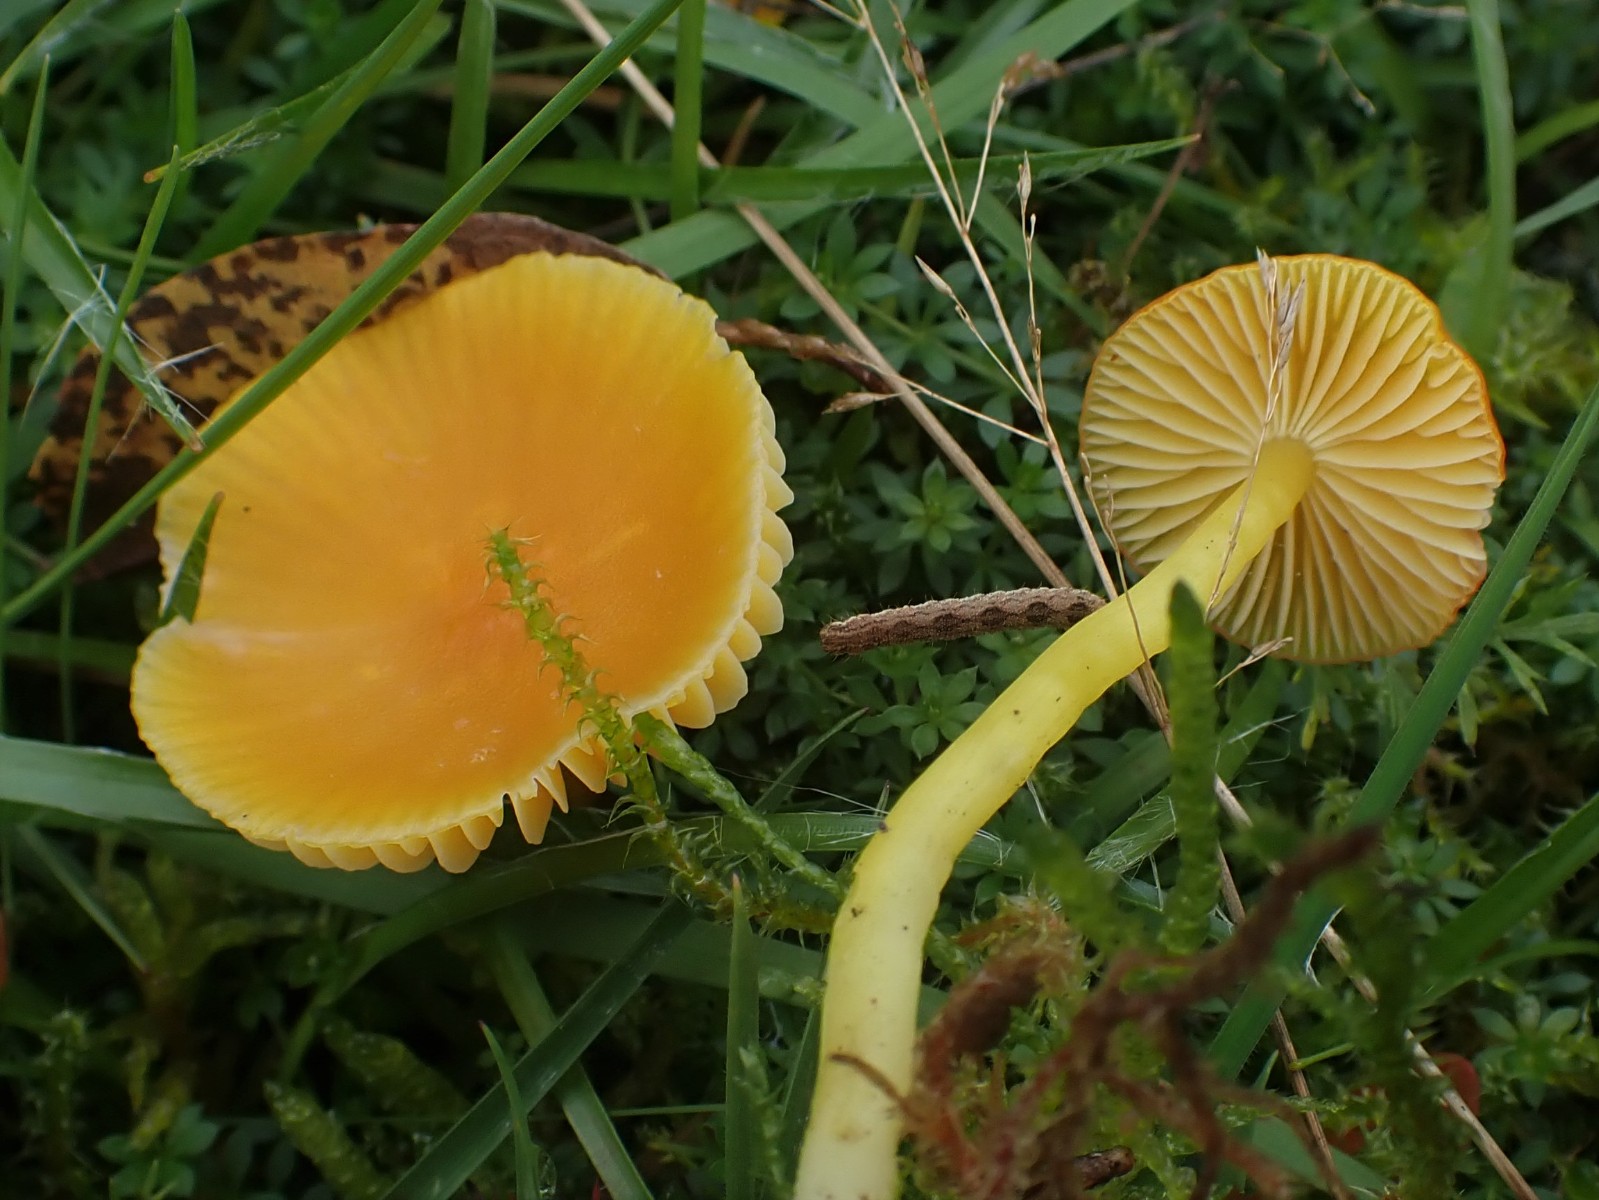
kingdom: Fungi
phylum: Basidiomycota
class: Agaricomycetes
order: Agaricales
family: Hygrophoraceae
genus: Hygrocybe
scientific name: Hygrocybe ceracea
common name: voksgul vokshat
